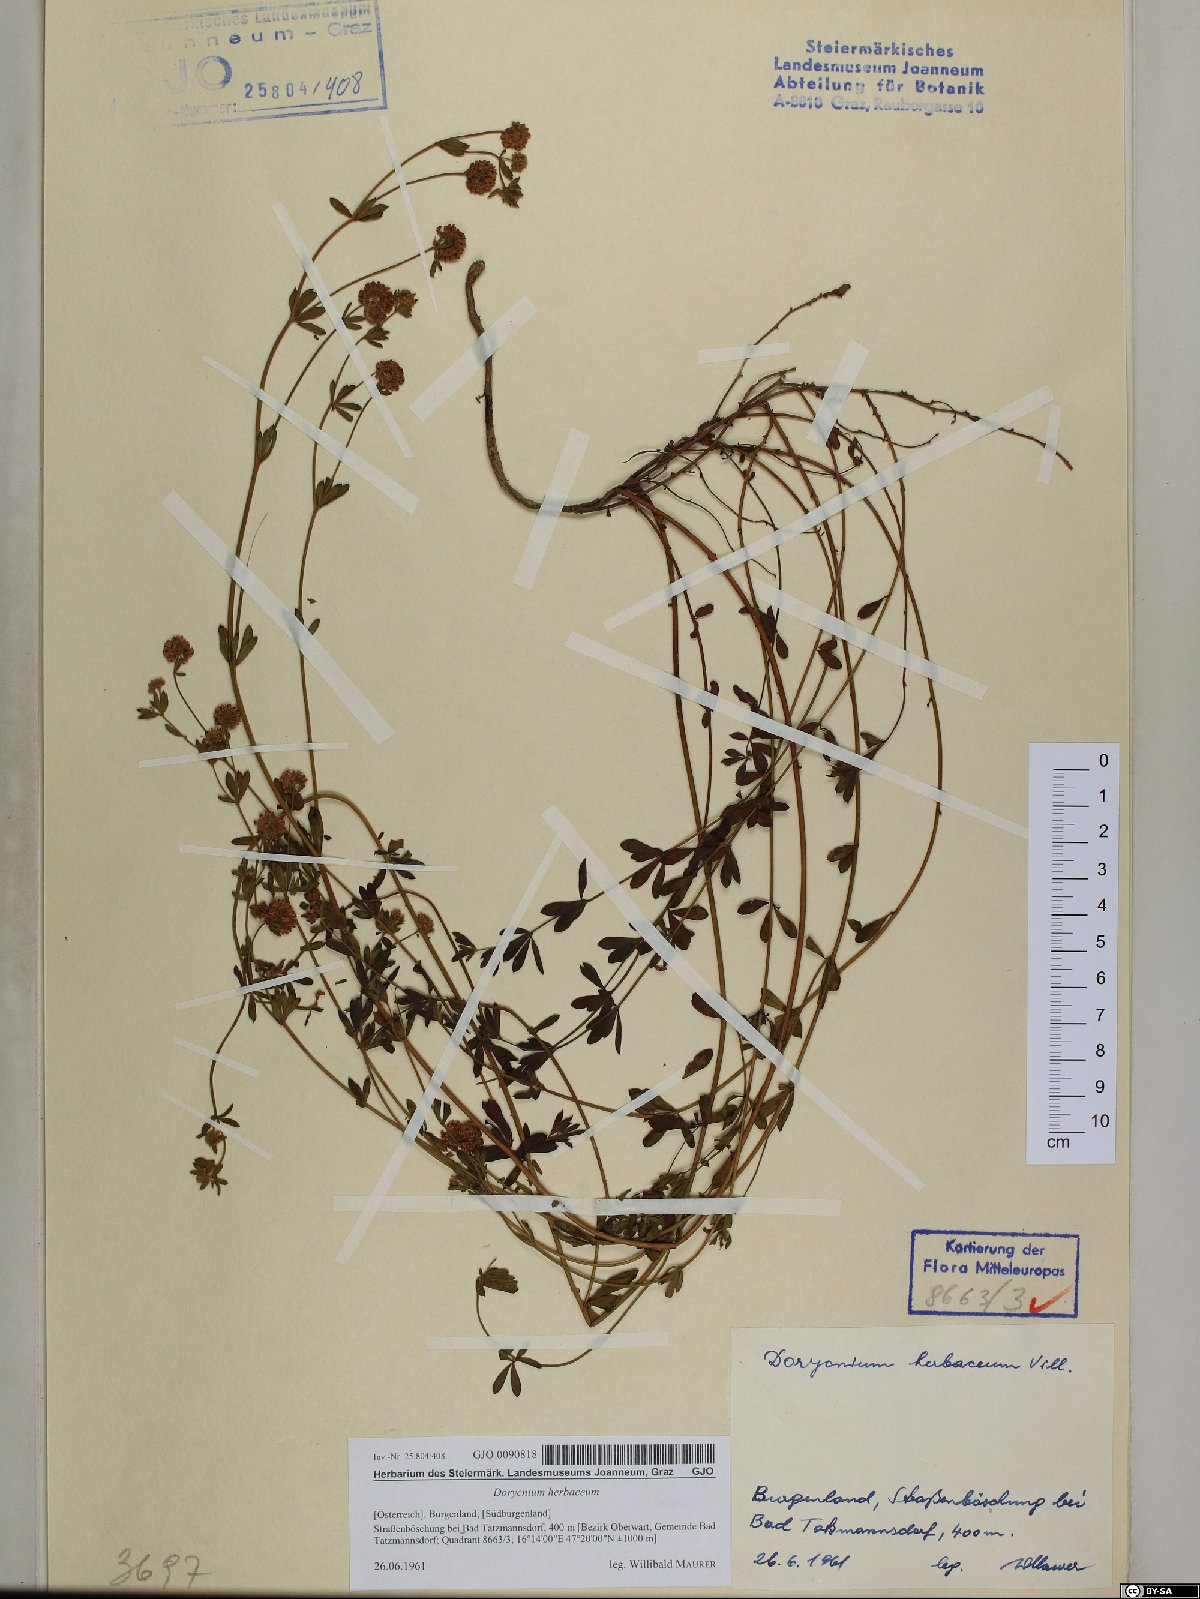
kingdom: Plantae
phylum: Tracheophyta
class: Magnoliopsida
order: Fabales
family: Fabaceae
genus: Lotus
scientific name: Lotus herbaceus
